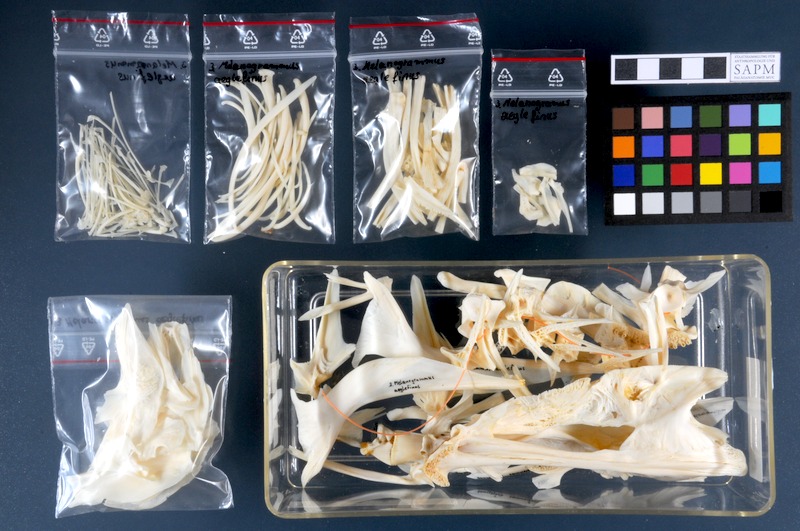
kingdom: Animalia
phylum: Chordata
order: Gadiformes
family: Gadidae
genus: Melanogrammus
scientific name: Melanogrammus aeglefinus
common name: Haddock
